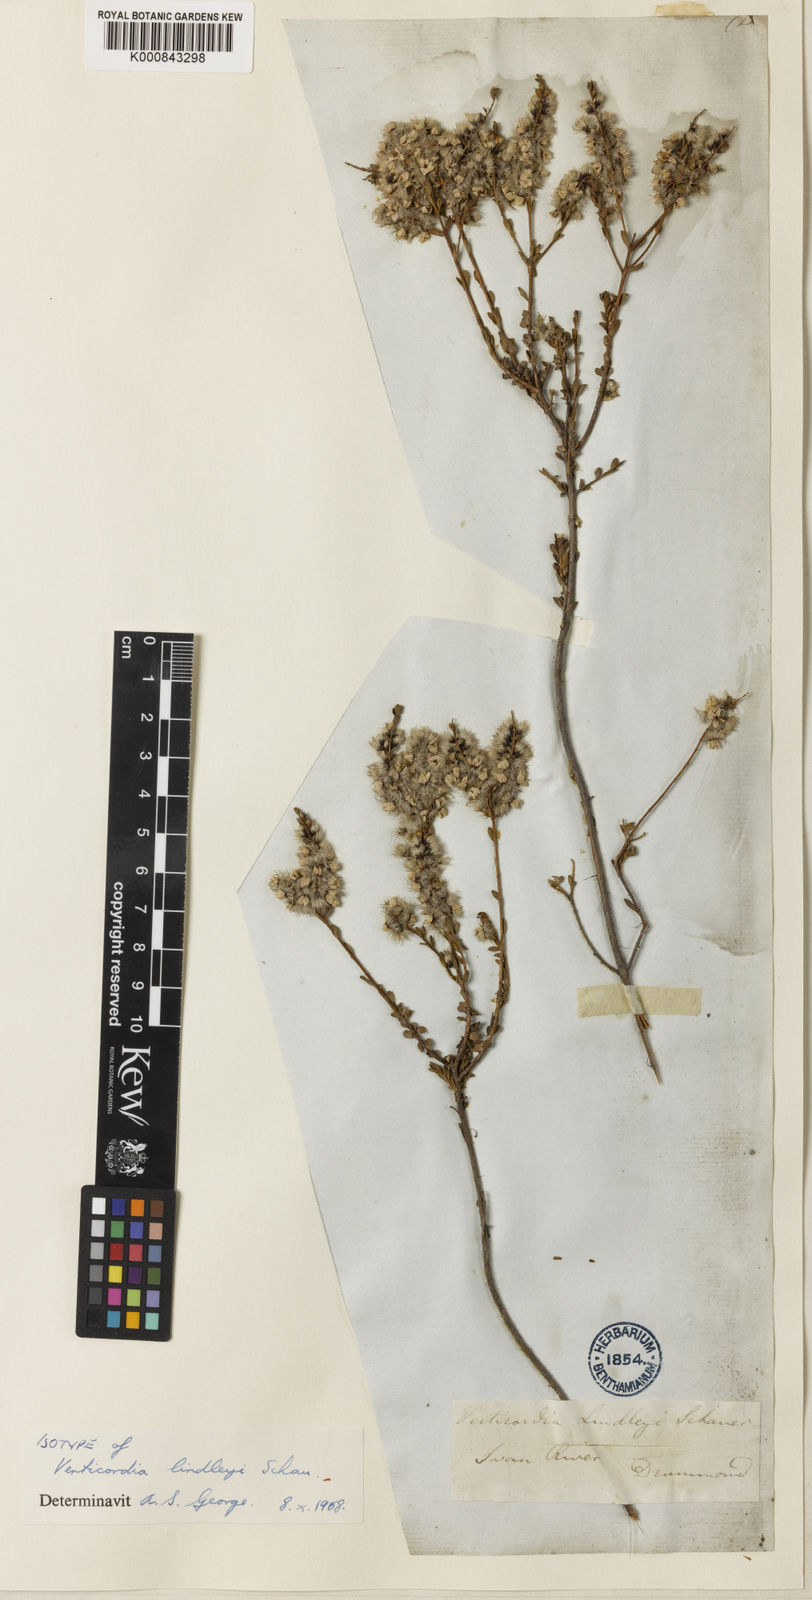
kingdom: Plantae
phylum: Tracheophyta
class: Magnoliopsida
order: Myrtales
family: Myrtaceae
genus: Verticordia
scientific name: Verticordia lindleyi
